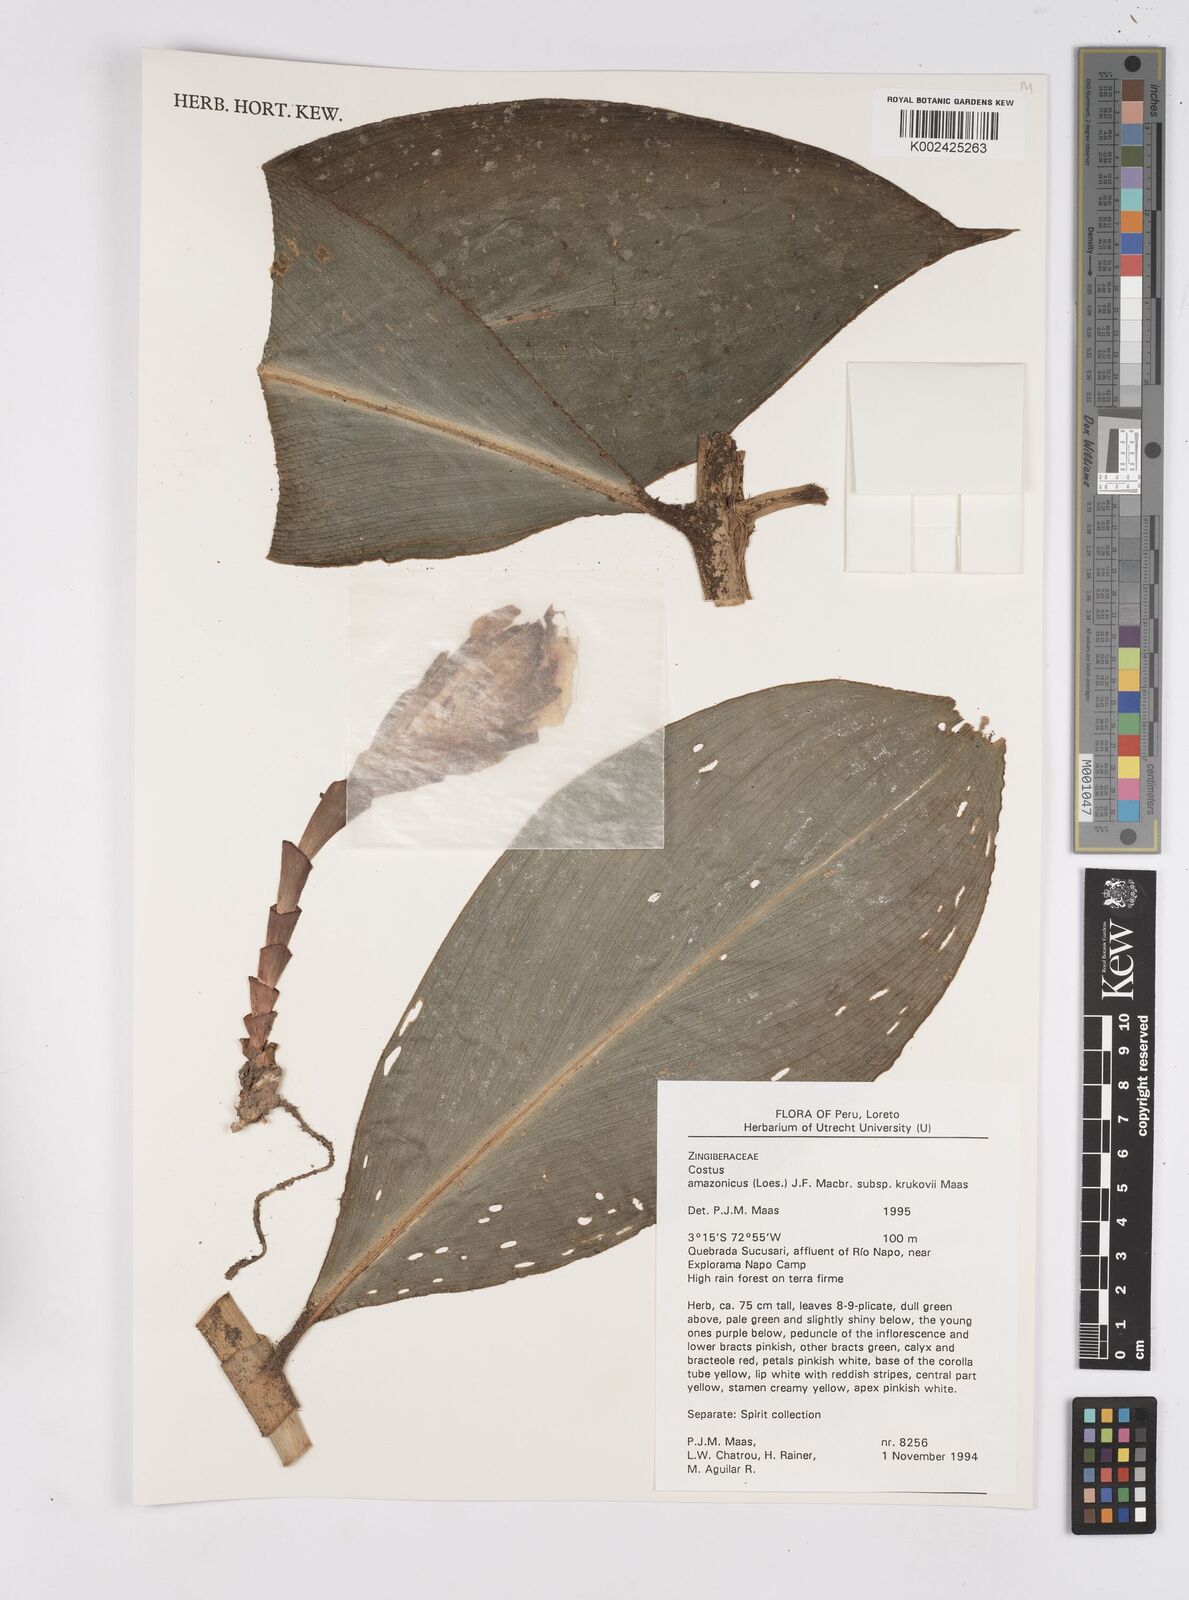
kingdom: Plantae
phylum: Tracheophyta
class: Liliopsida
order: Zingiberales
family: Costaceae
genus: Costus
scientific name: Costus amazonicus
